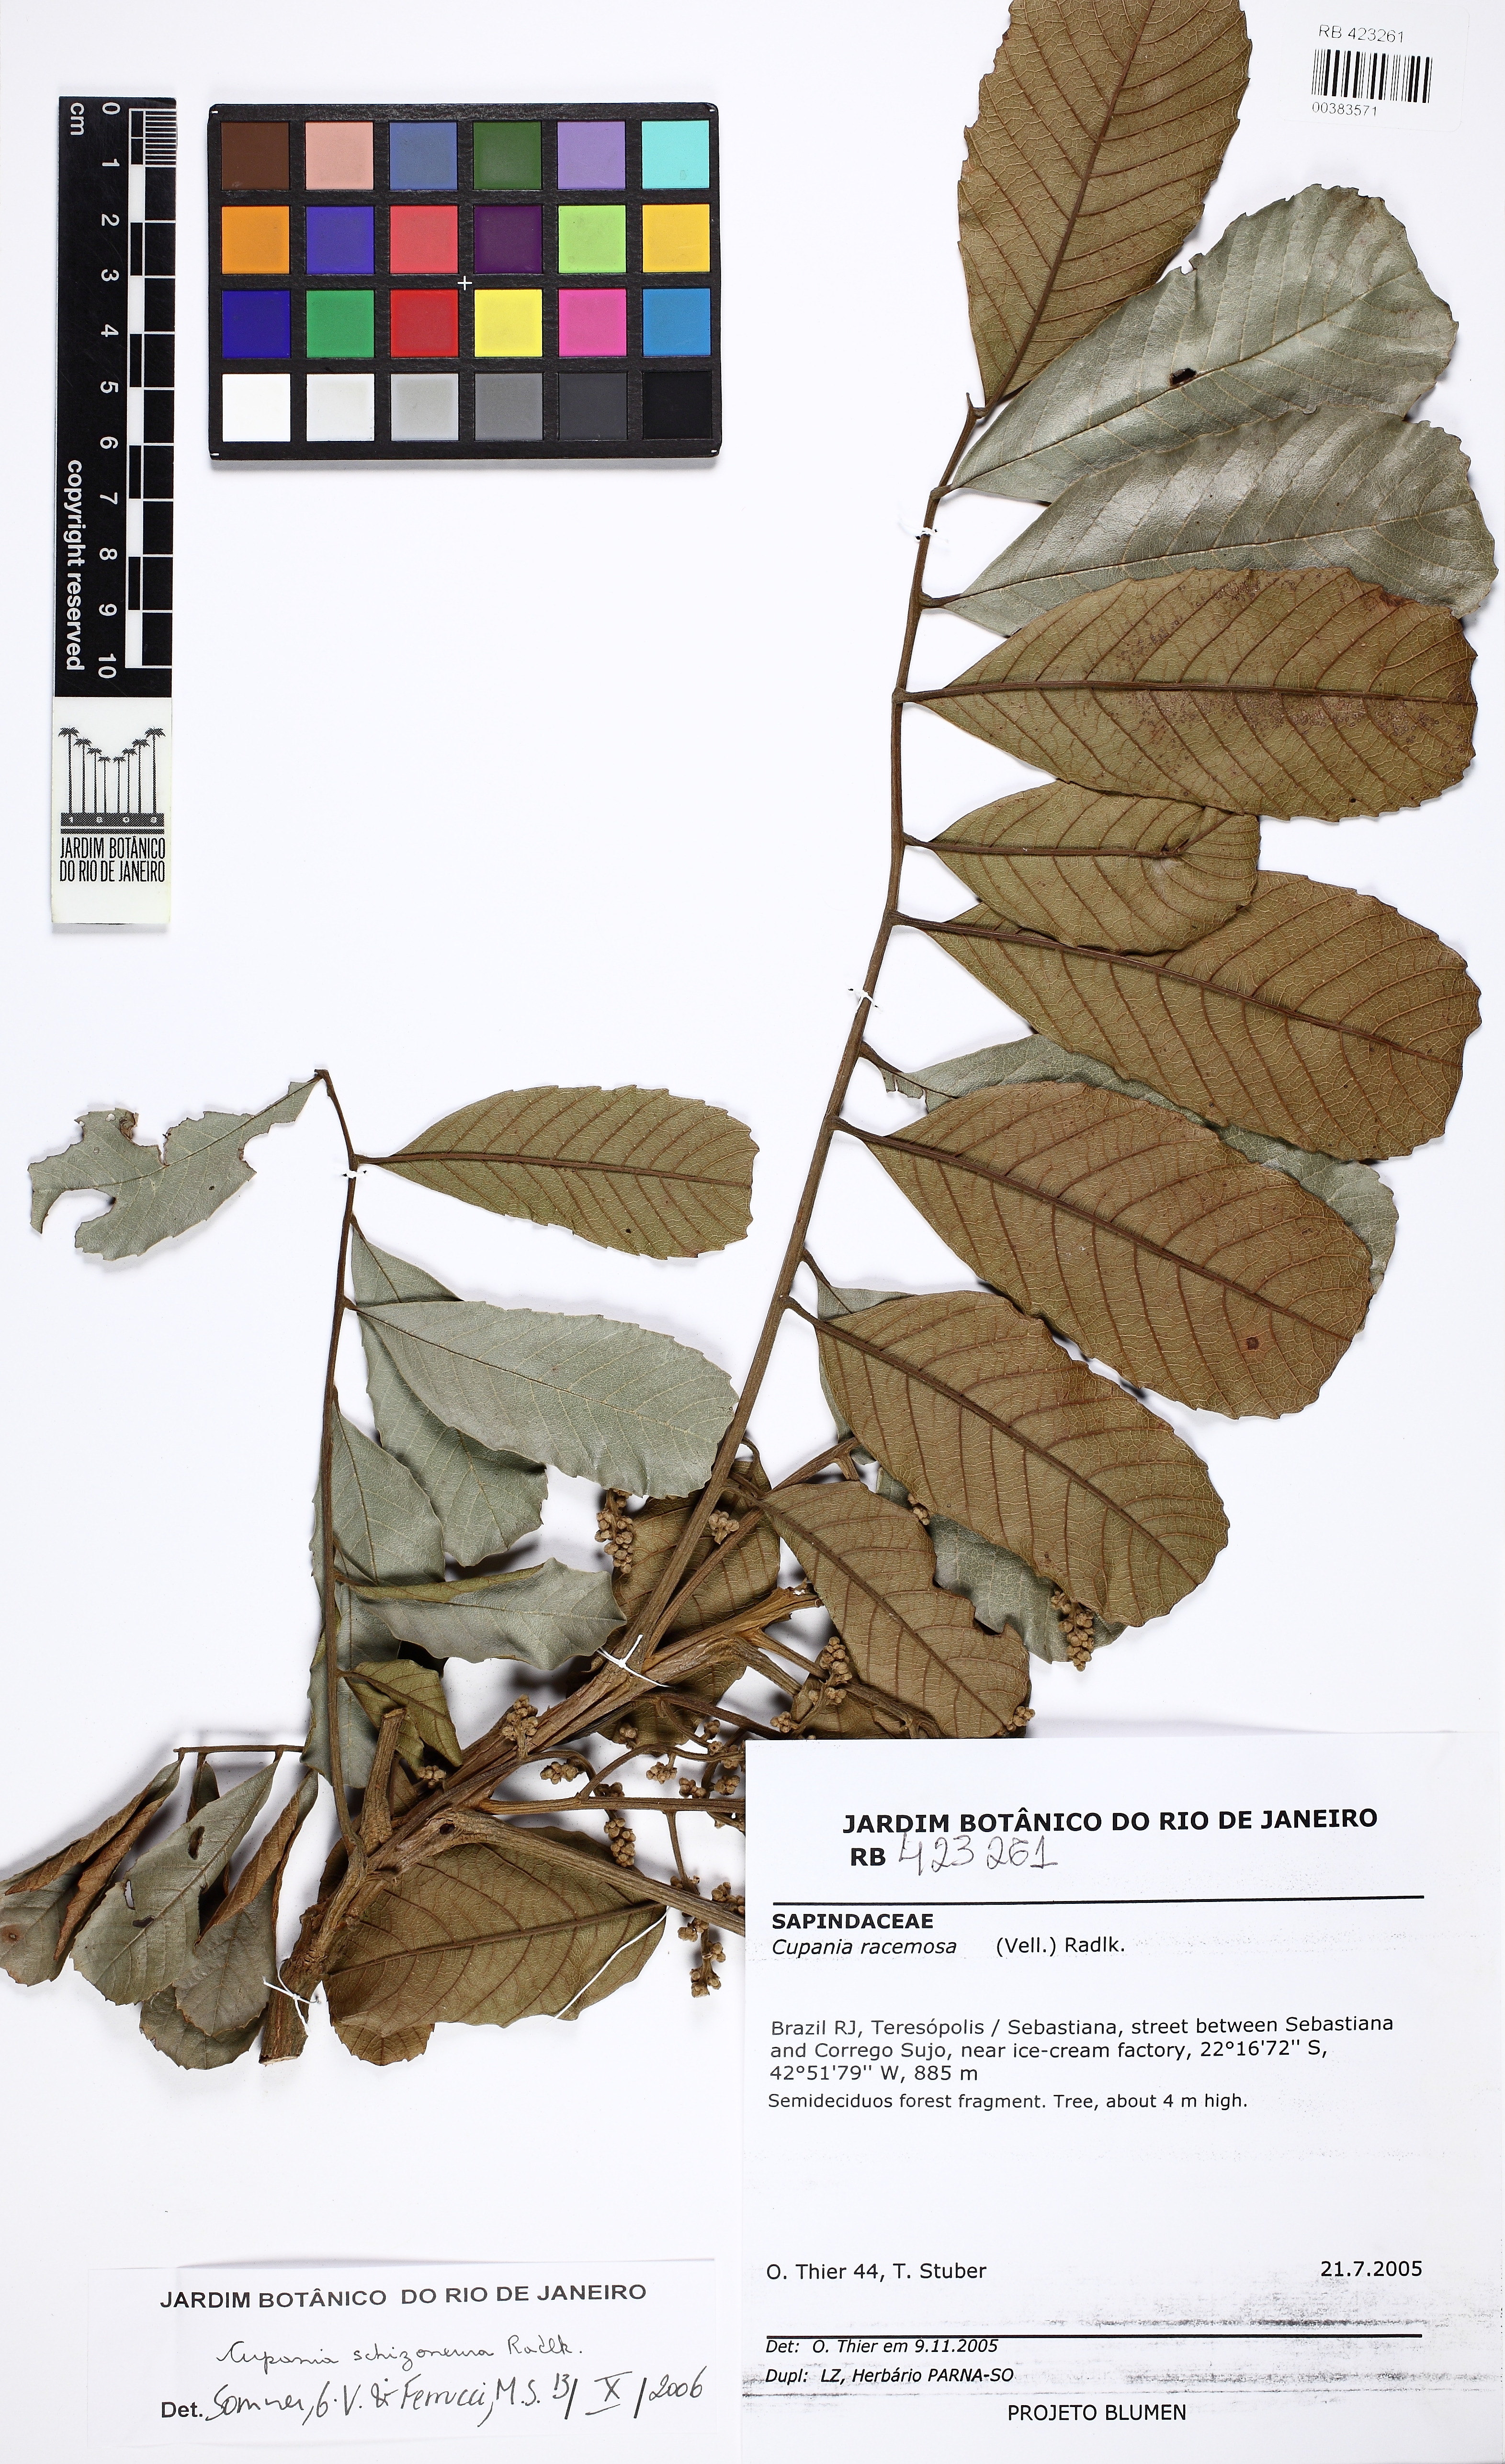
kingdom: Plantae
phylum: Tracheophyta
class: Magnoliopsida
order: Sapindales
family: Sapindaceae
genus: Cupania
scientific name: Cupania fluminensis
